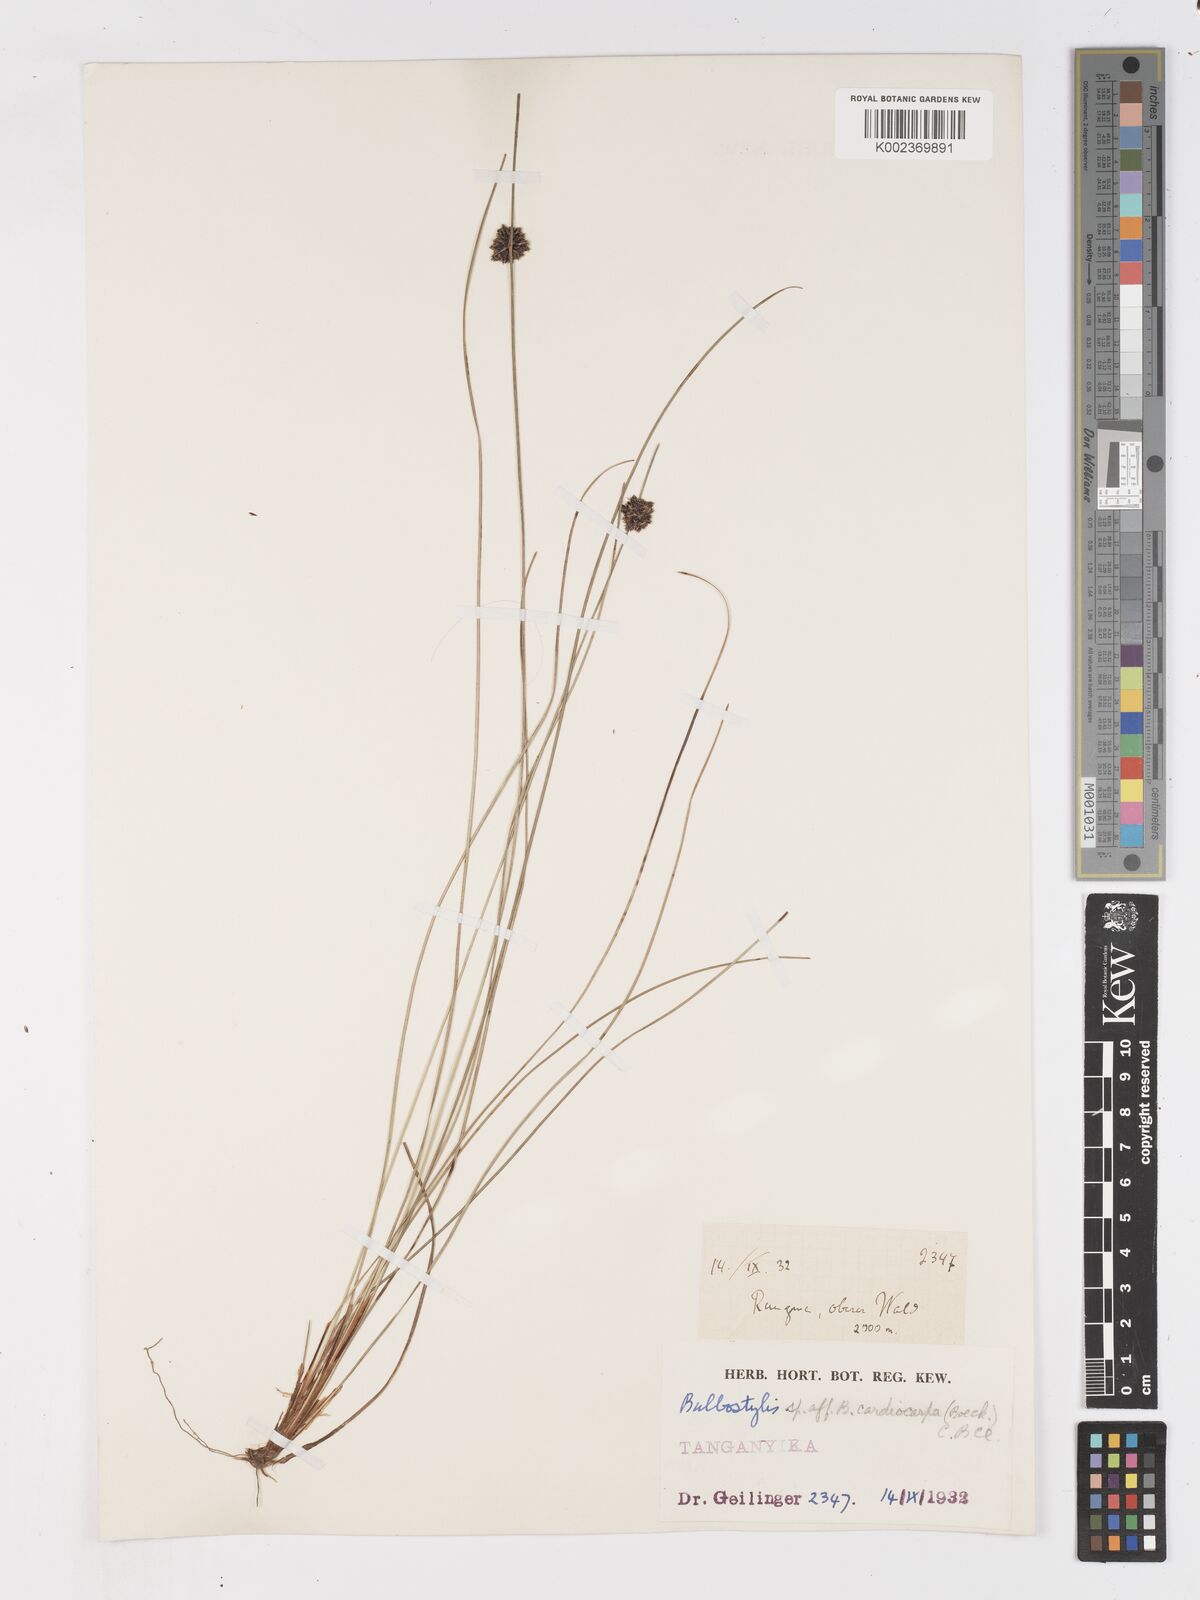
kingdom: Plantae
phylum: Tracheophyta
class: Liliopsida
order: Poales
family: Cyperaceae
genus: Ficinia
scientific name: Ficinia gracilis
